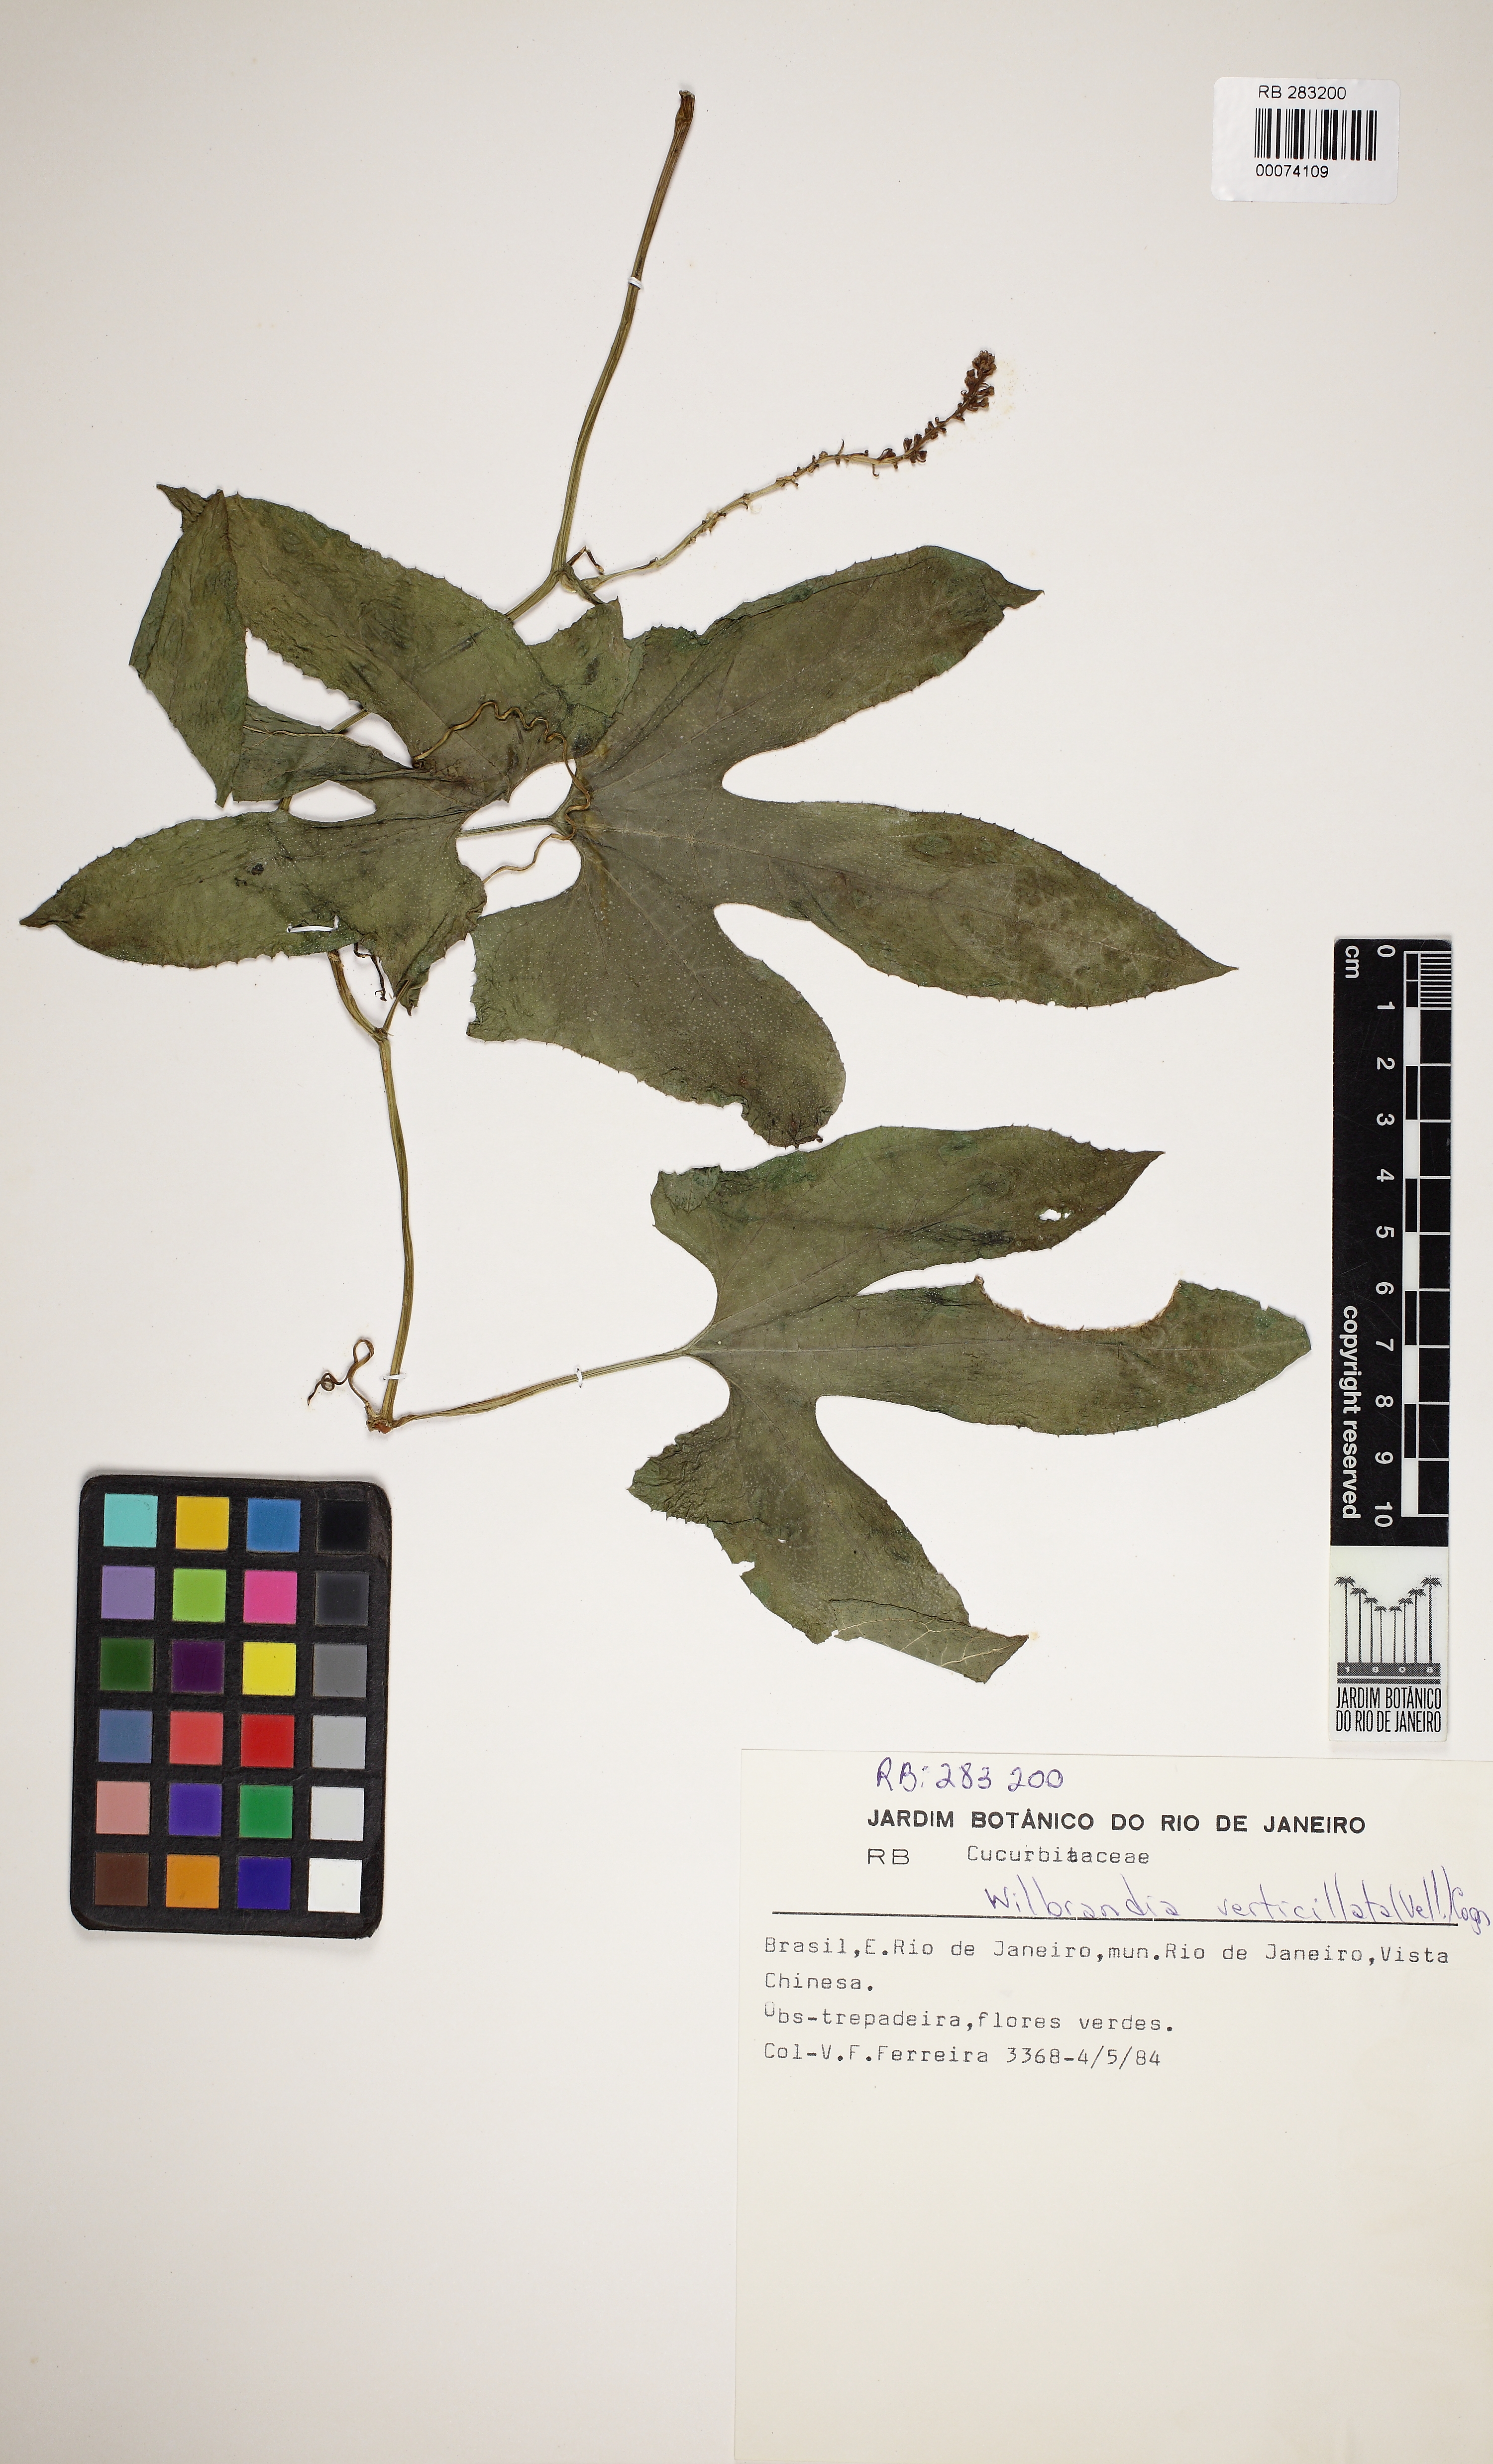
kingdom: Plantae
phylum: Tracheophyta
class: Magnoliopsida
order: Cucurbitales
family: Cucurbitaceae
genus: Wilbrandia
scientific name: Wilbrandia verticillata
